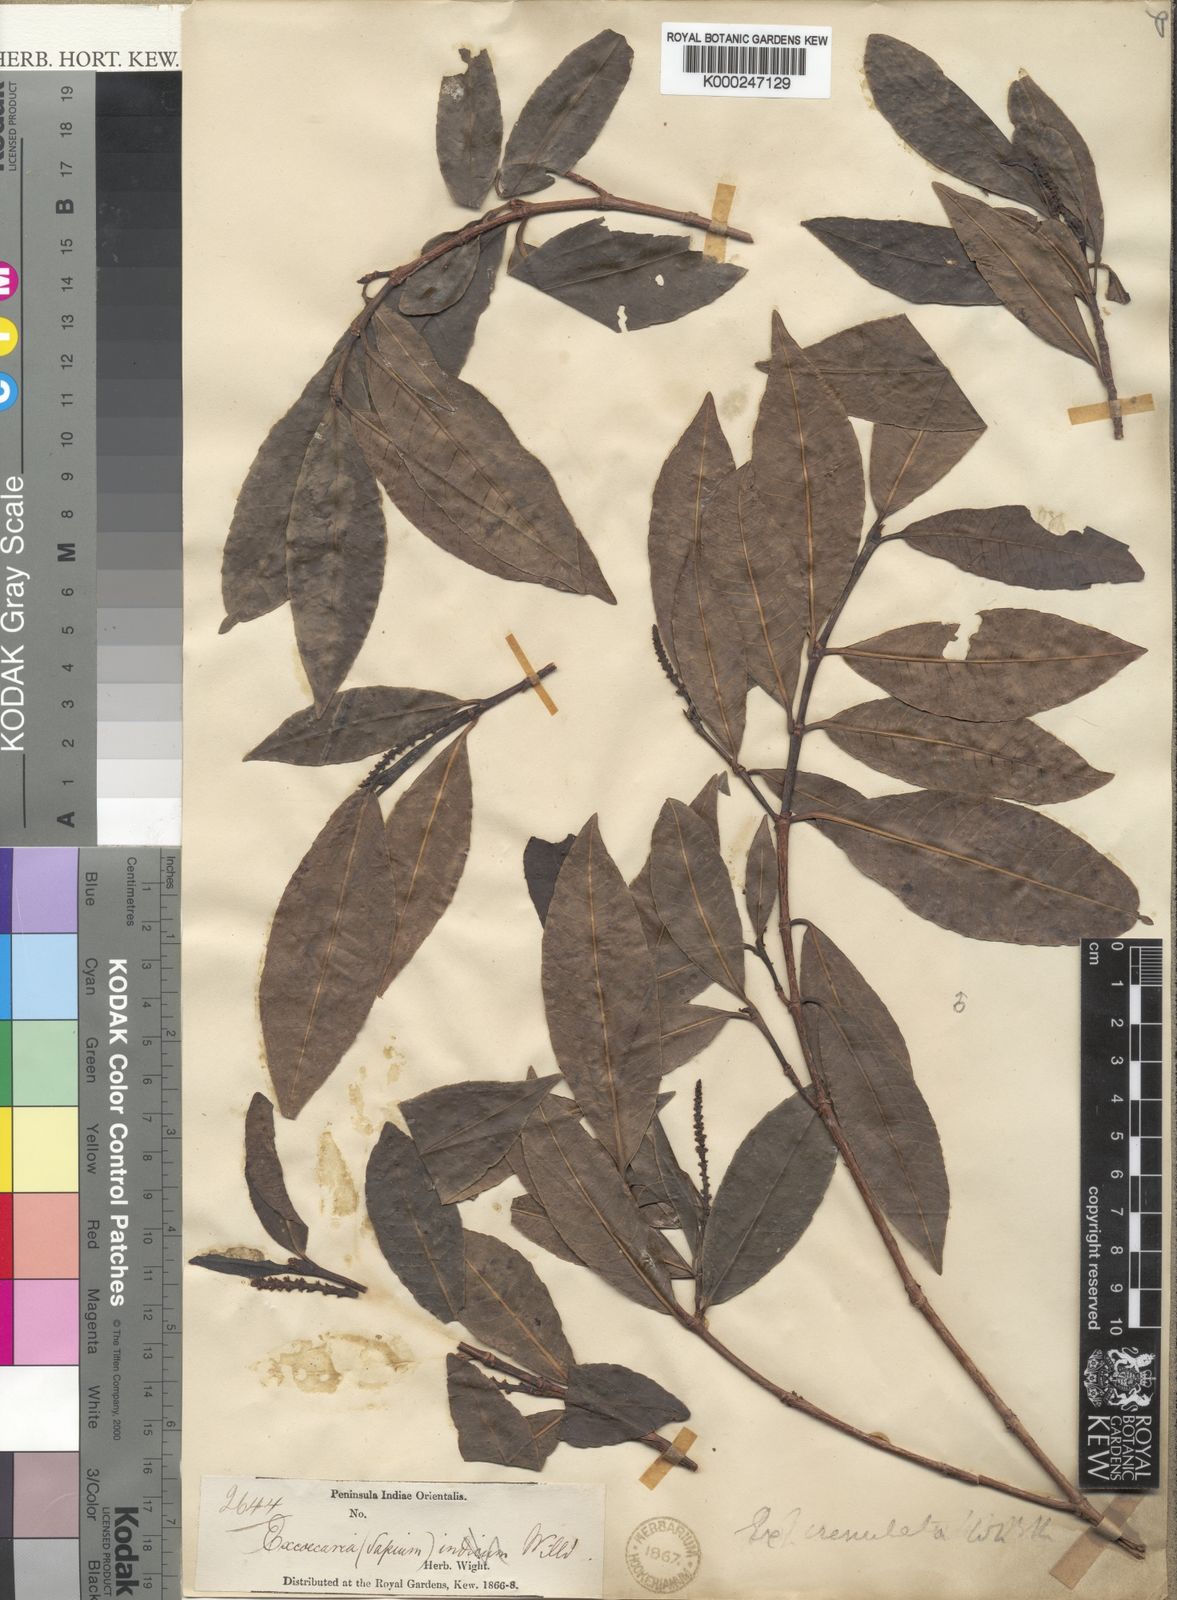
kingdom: Plantae
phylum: Tracheophyta
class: Magnoliopsida
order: Malpighiales
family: Euphorbiaceae
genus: Excoecaria
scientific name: Excoecaria oppositifolia
